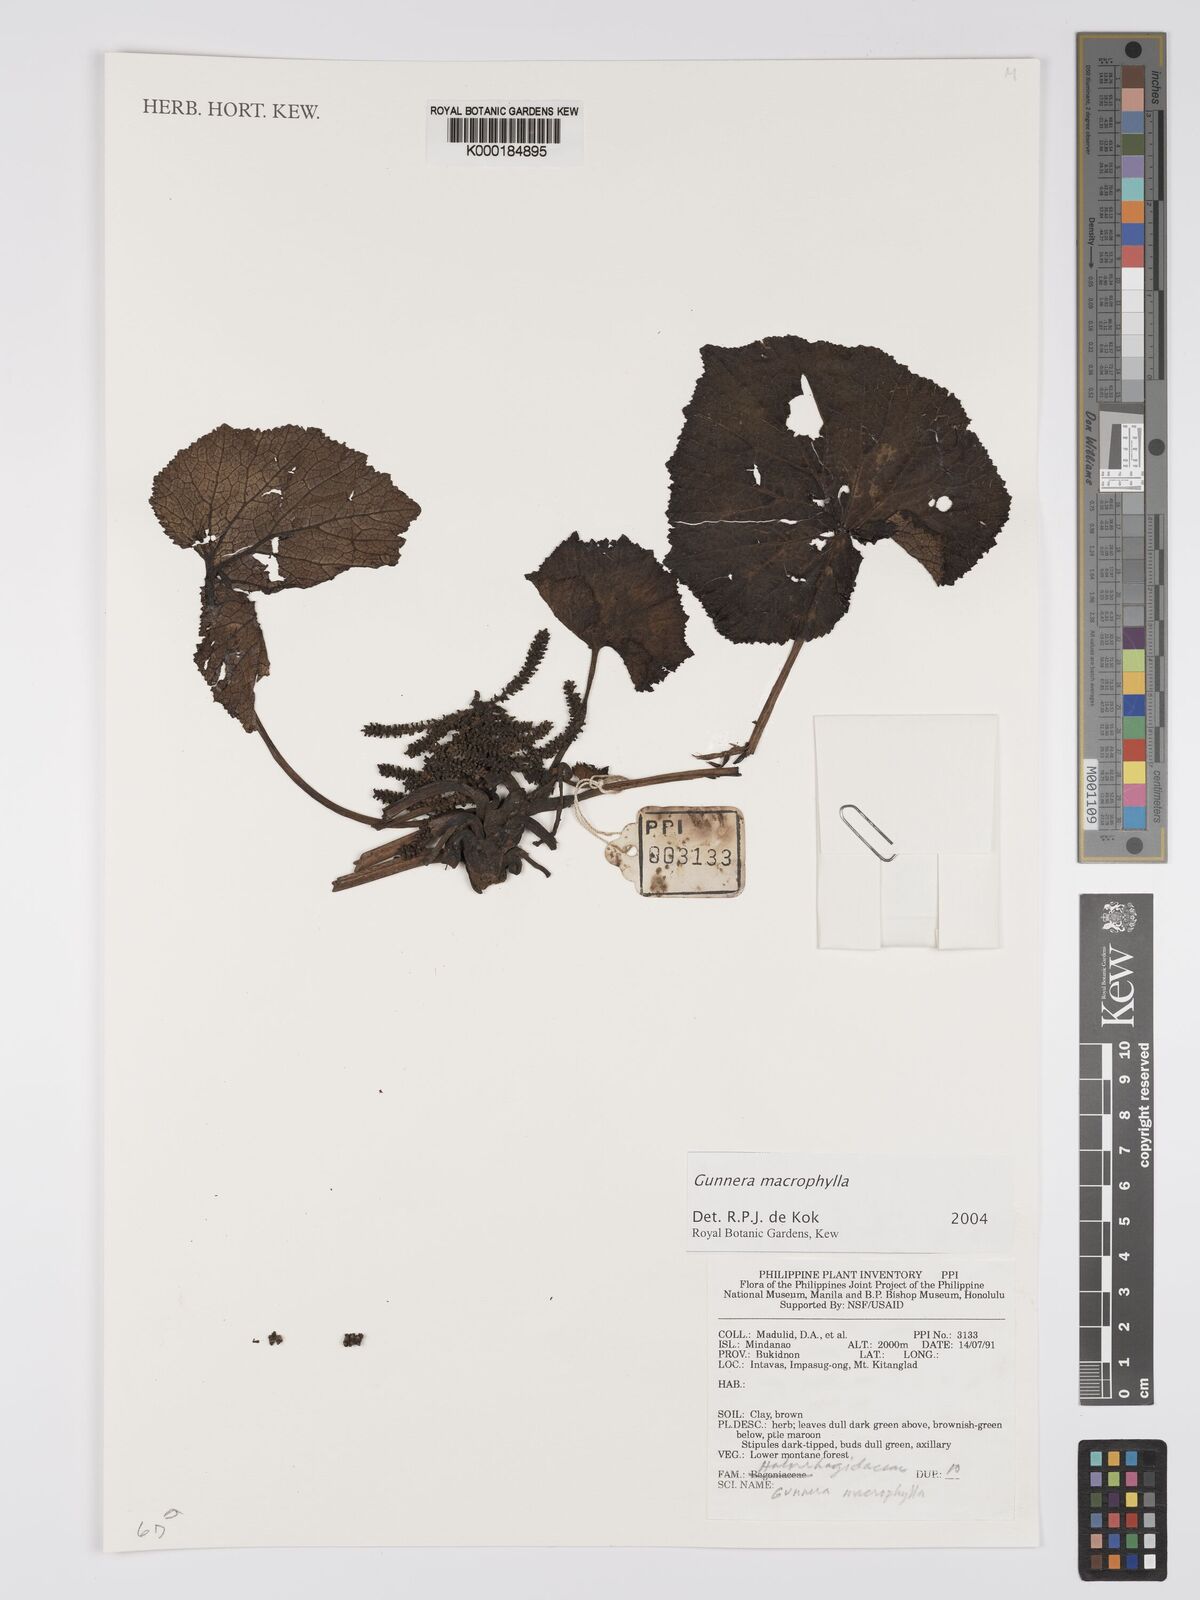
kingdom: Plantae
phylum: Tracheophyta
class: Magnoliopsida
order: Gunnerales
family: Gunneraceae
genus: Gunnera
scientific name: Gunnera macrophylla
